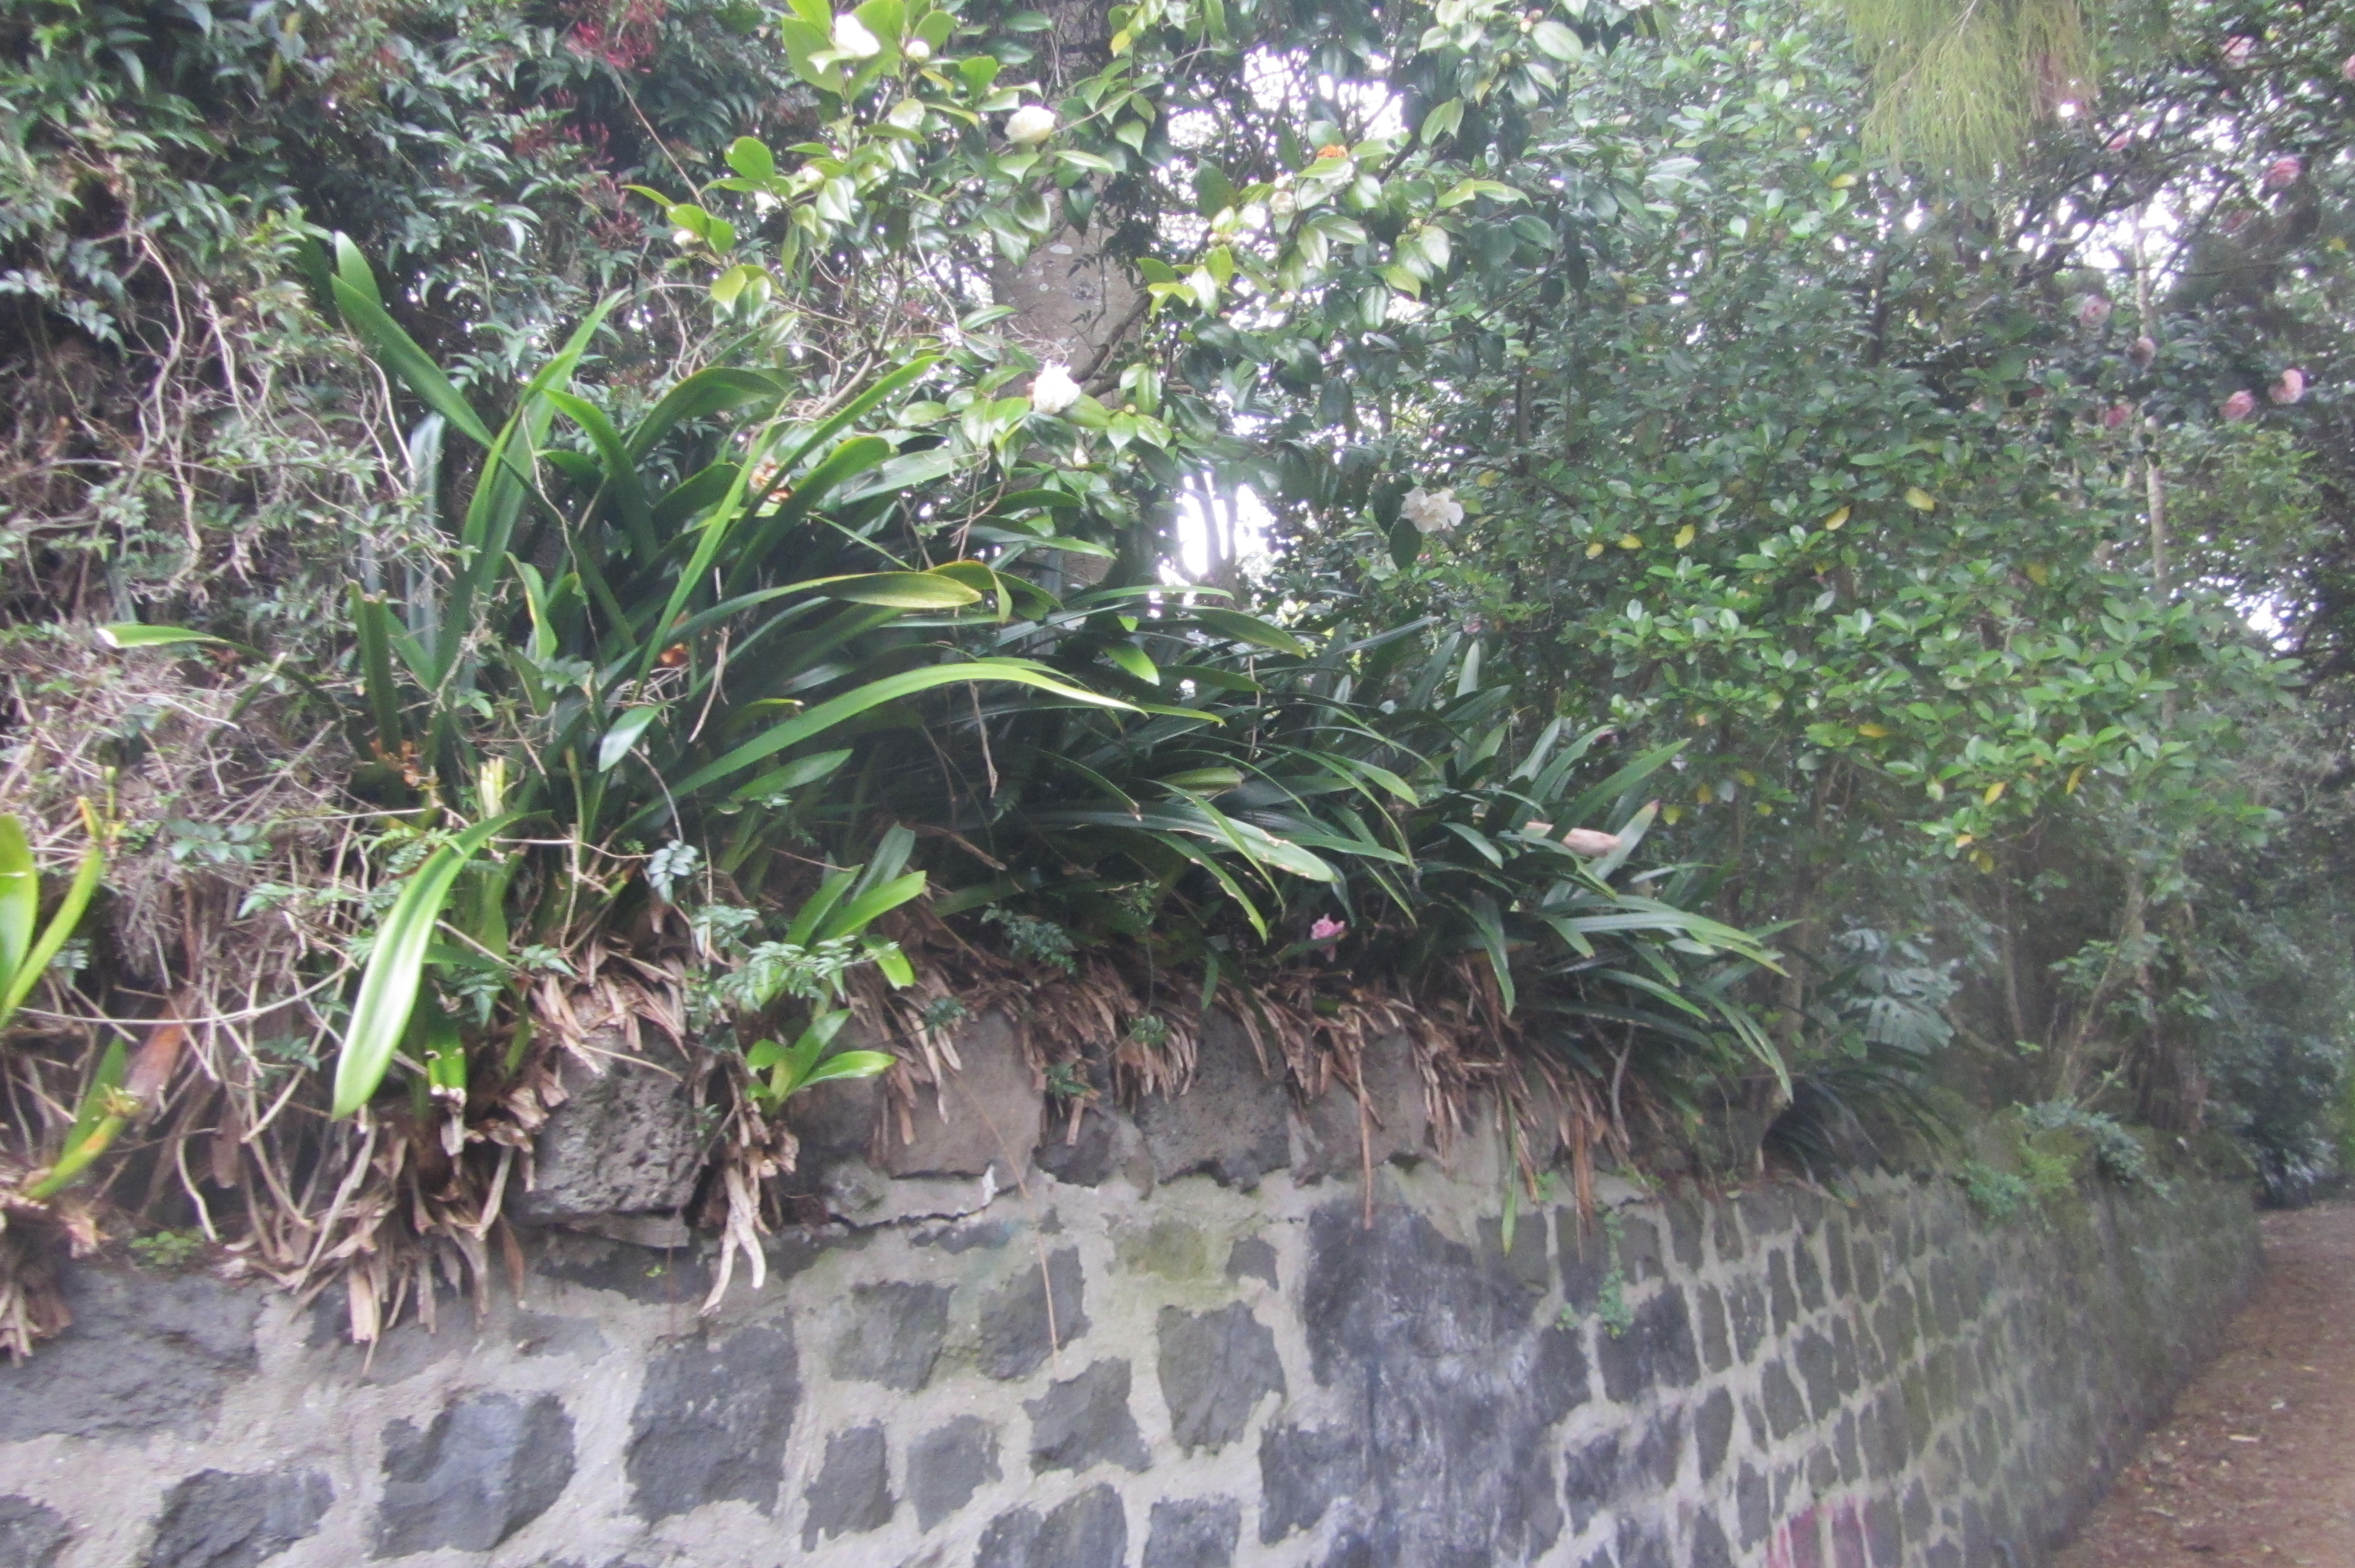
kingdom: Plantae
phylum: Tracheophyta
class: Liliopsida
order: Asparagales
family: Amaryllidaceae
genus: Clivia
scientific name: Clivia miniata
